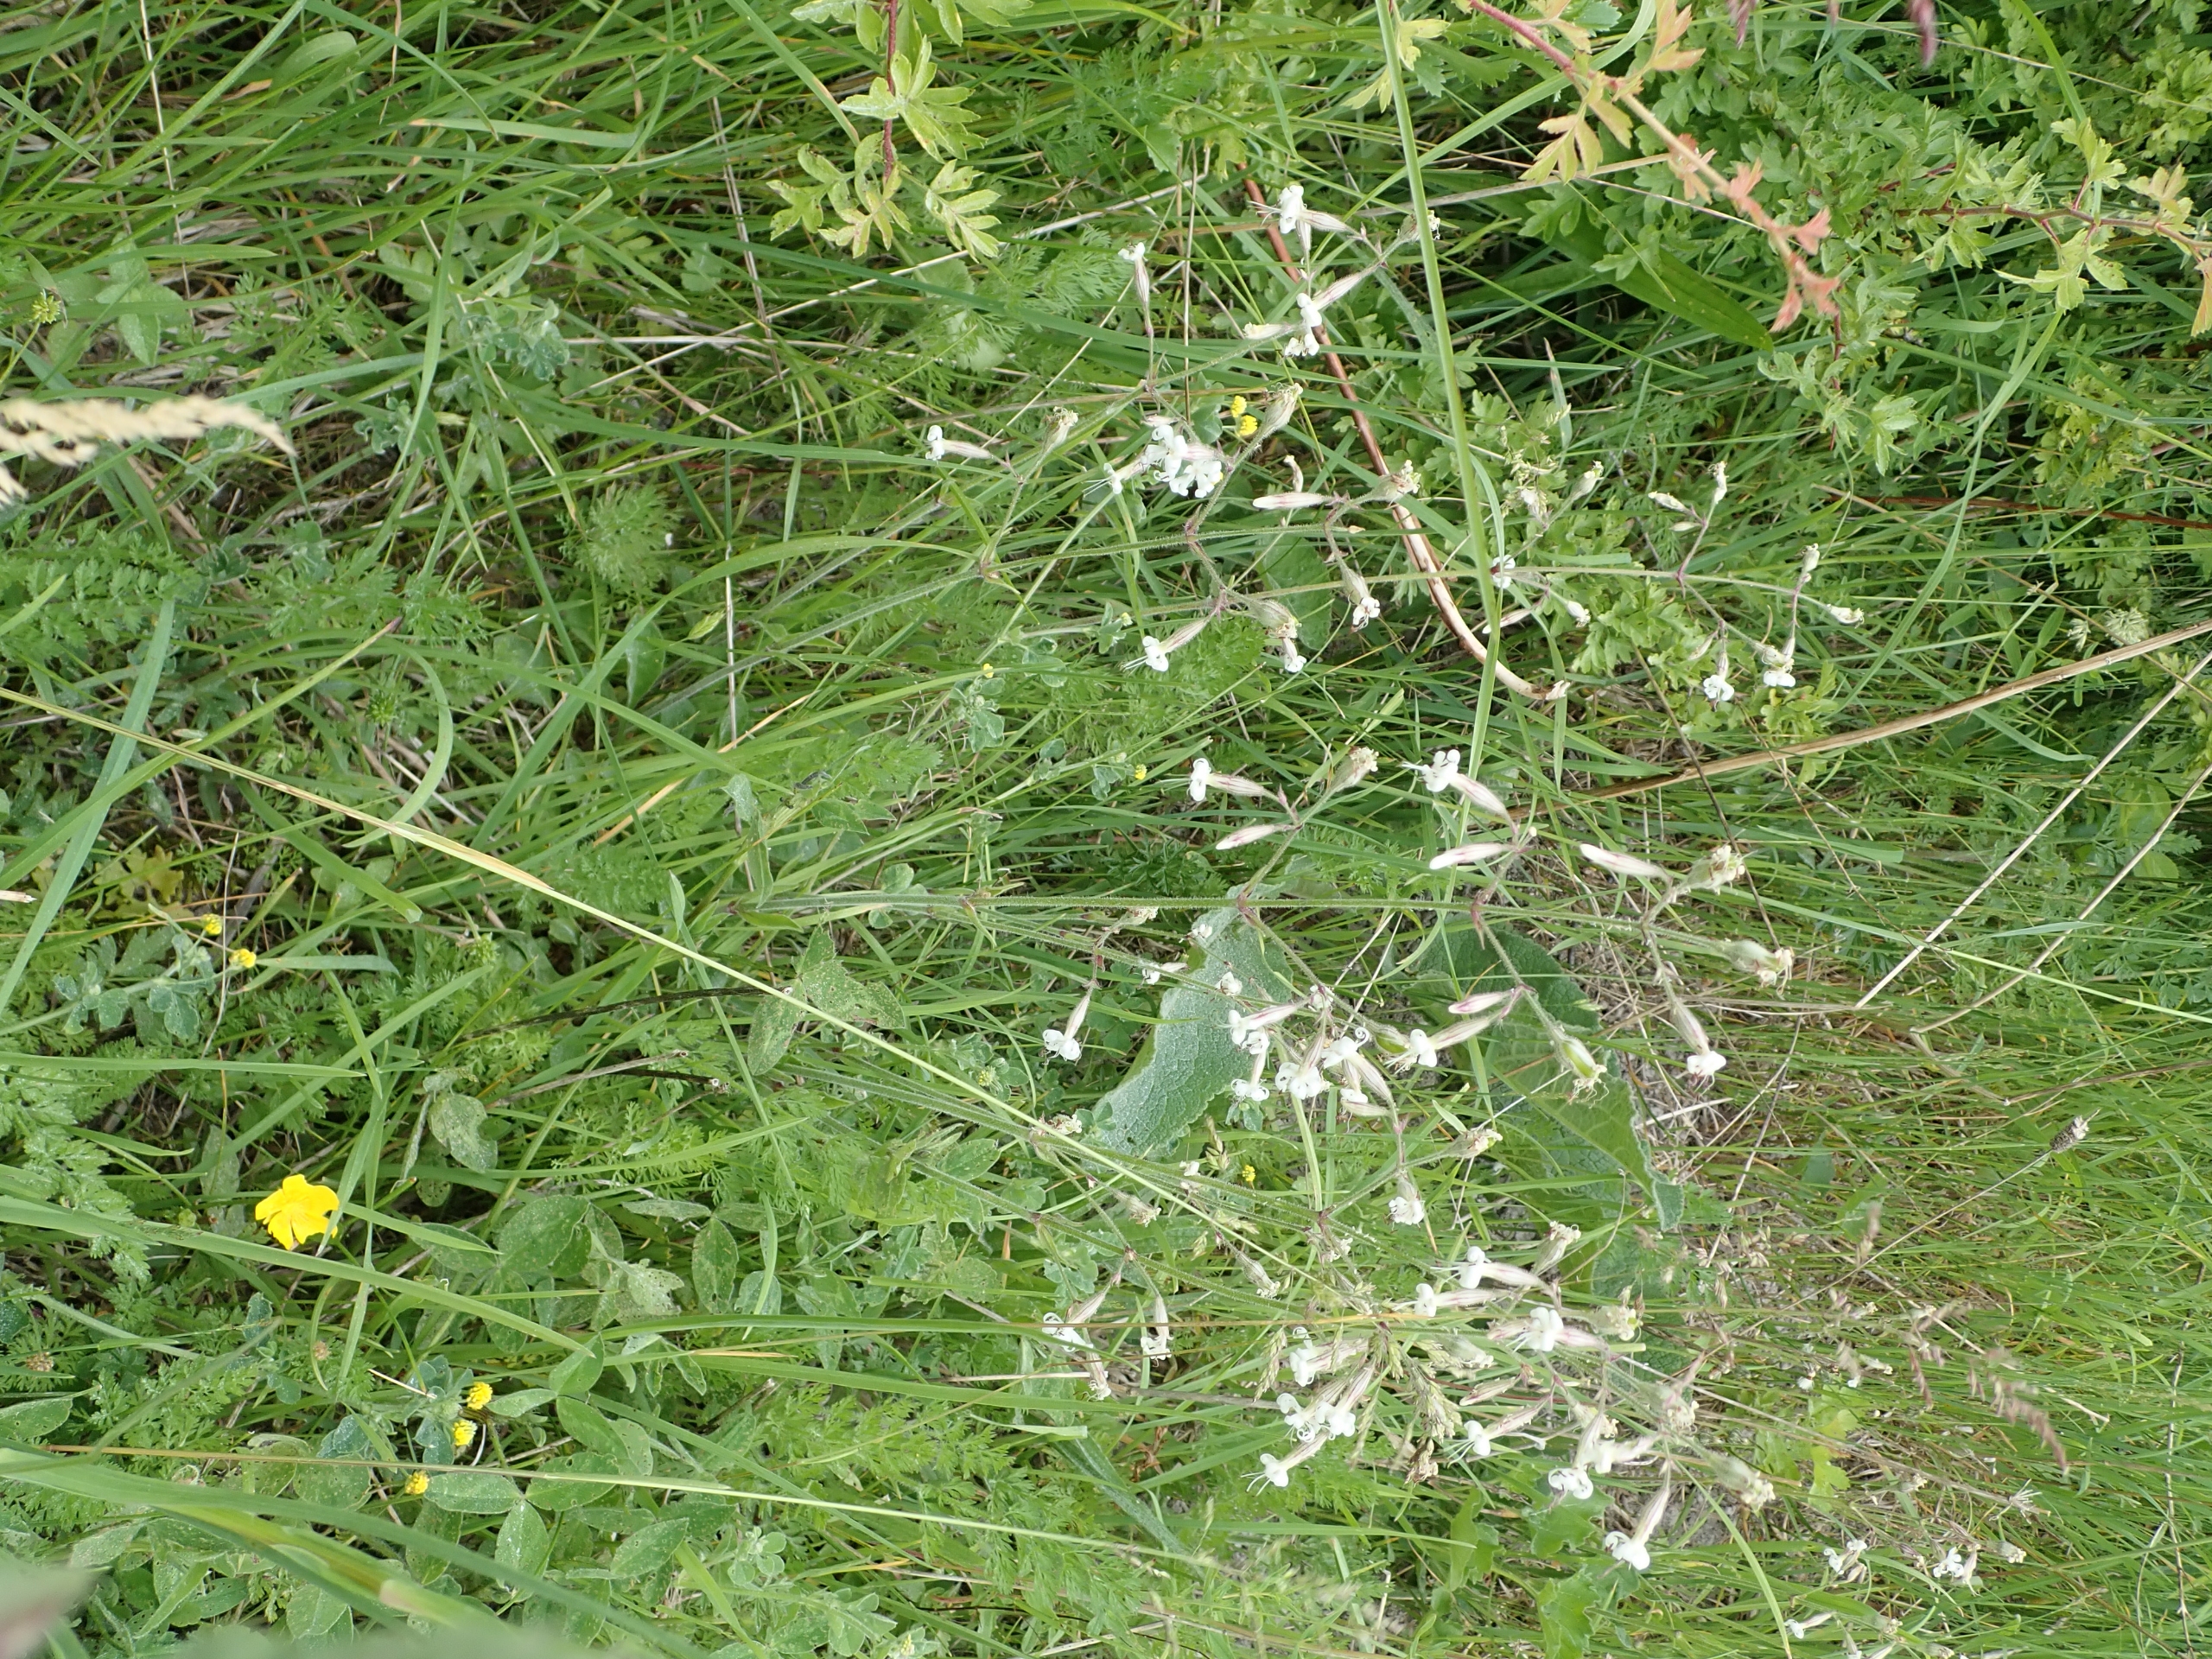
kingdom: Plantae
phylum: Tracheophyta
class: Magnoliopsida
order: Caryophyllales
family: Caryophyllaceae
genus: Silene
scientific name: Silene nutans
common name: Nikkende limurt
